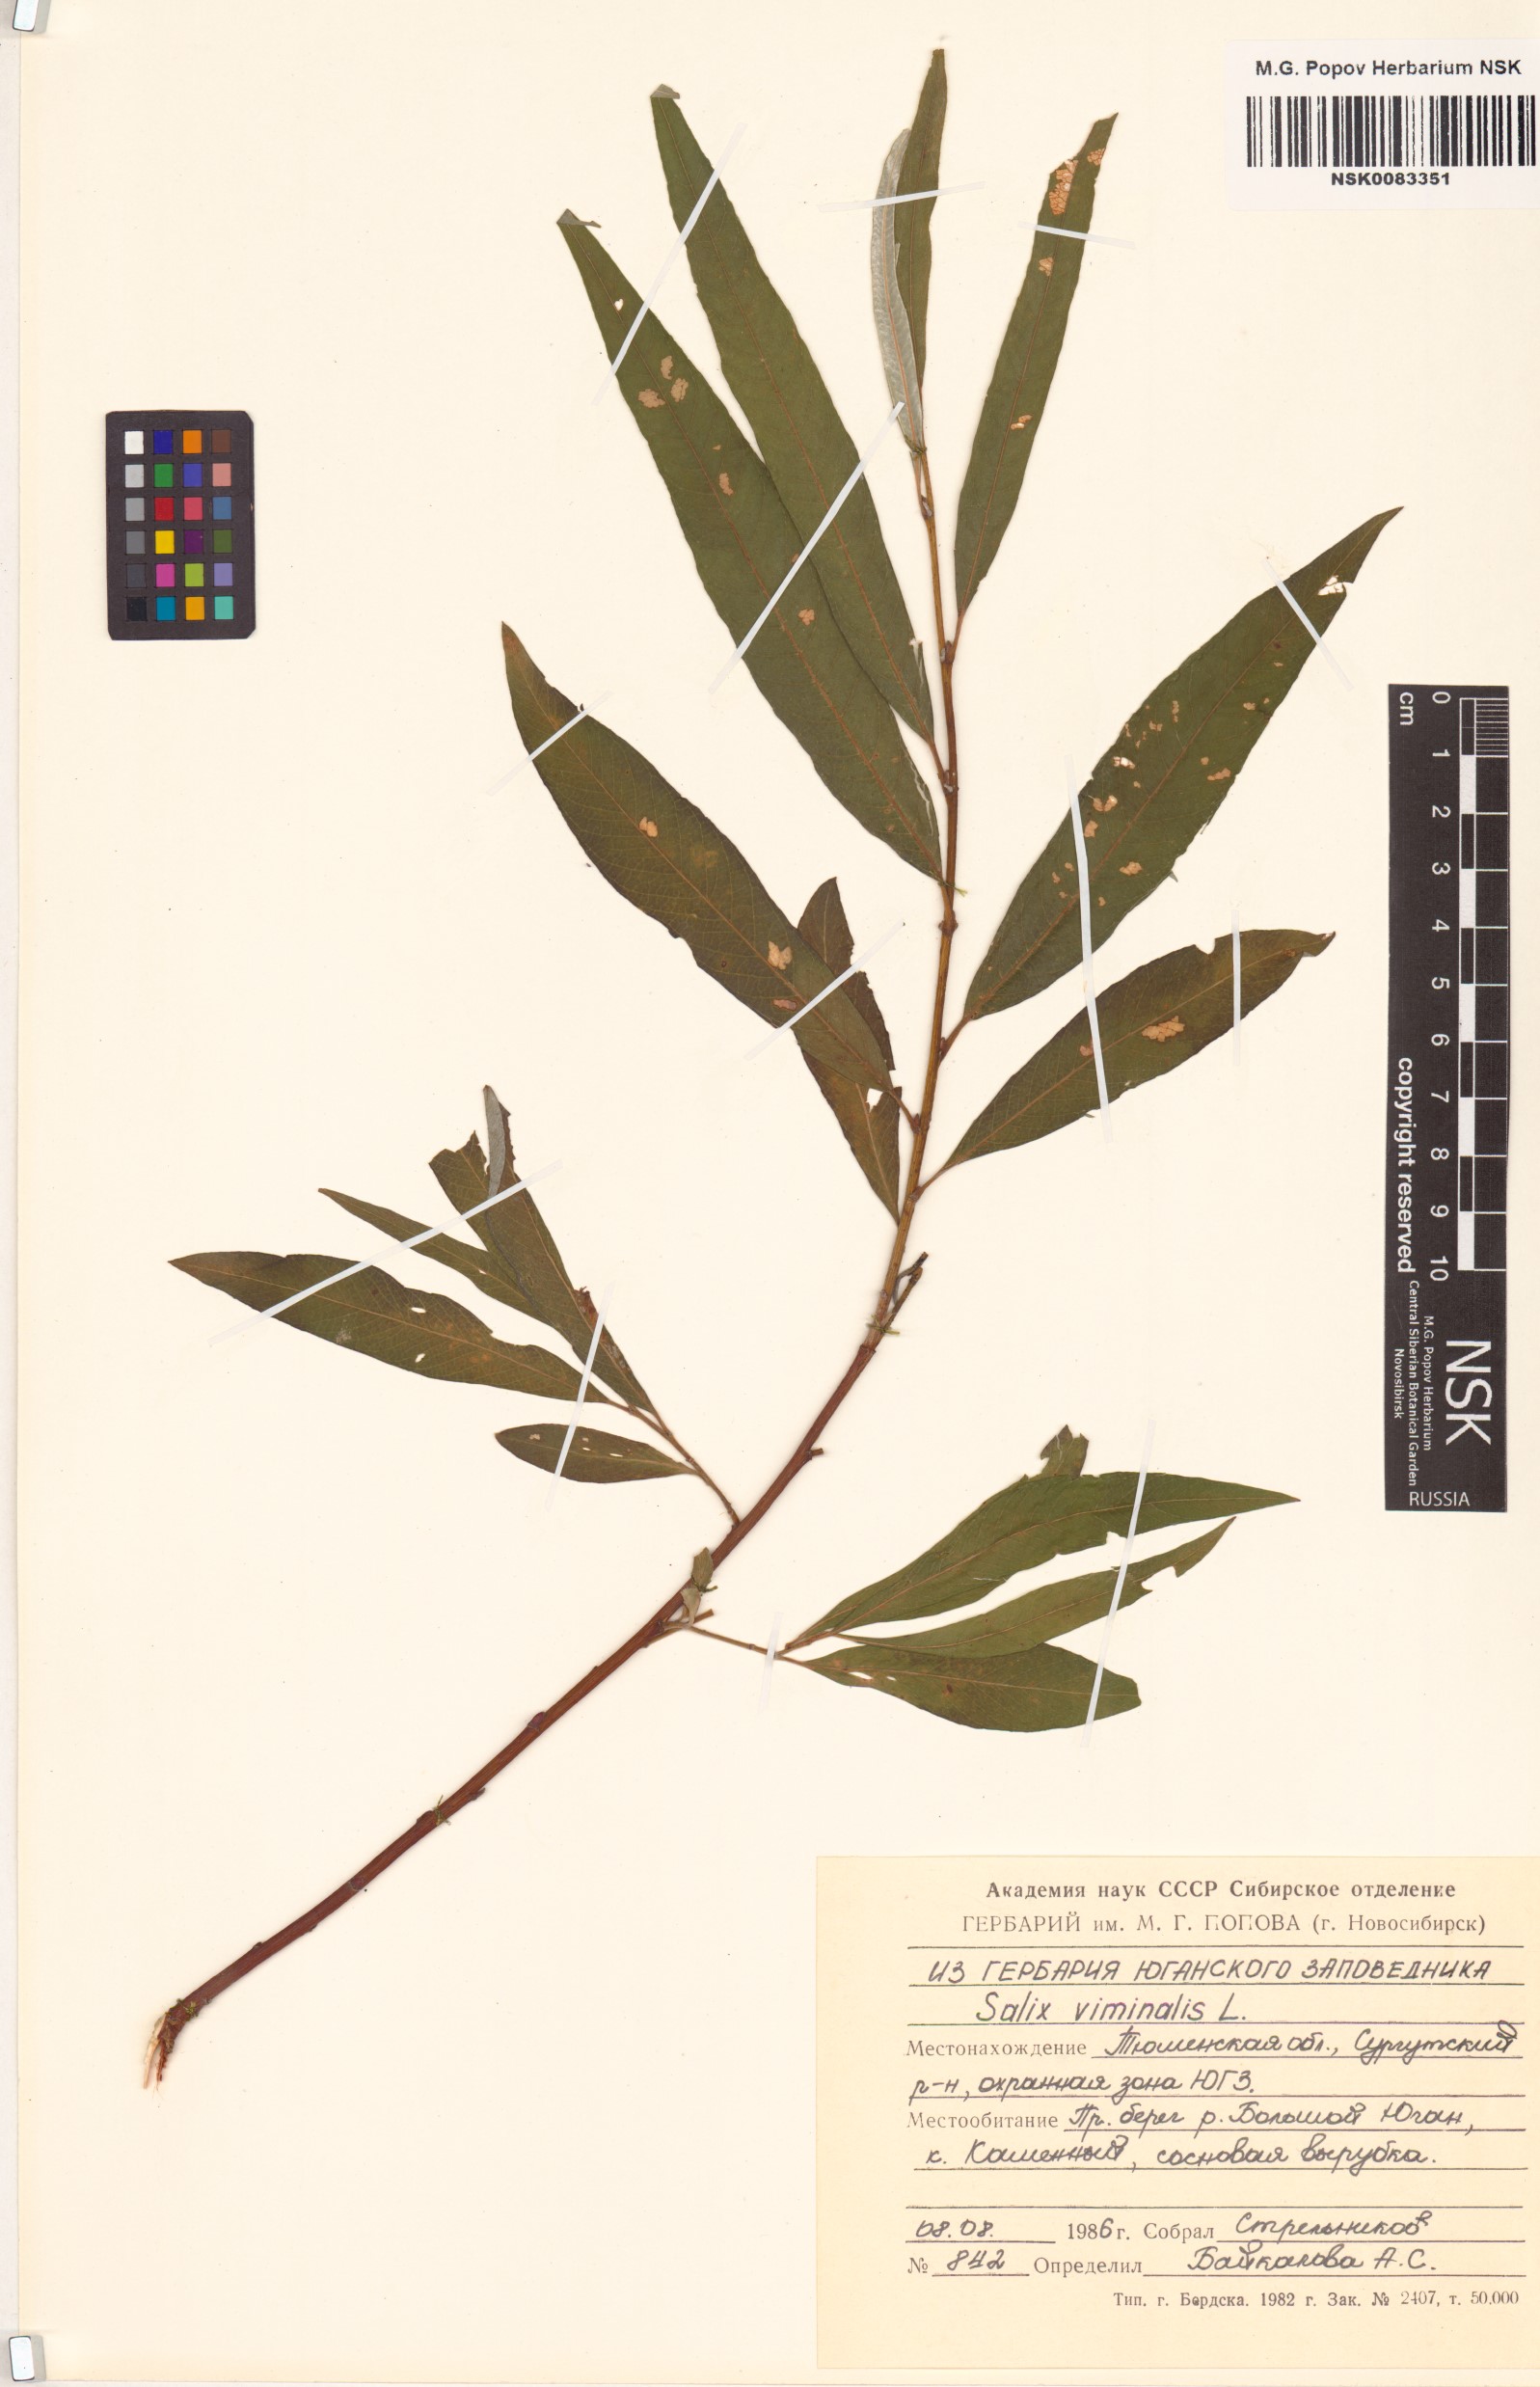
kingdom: Plantae
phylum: Tracheophyta
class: Magnoliopsida
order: Malpighiales
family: Salicaceae
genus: Salix
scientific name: Salix viminalis
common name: Osier
